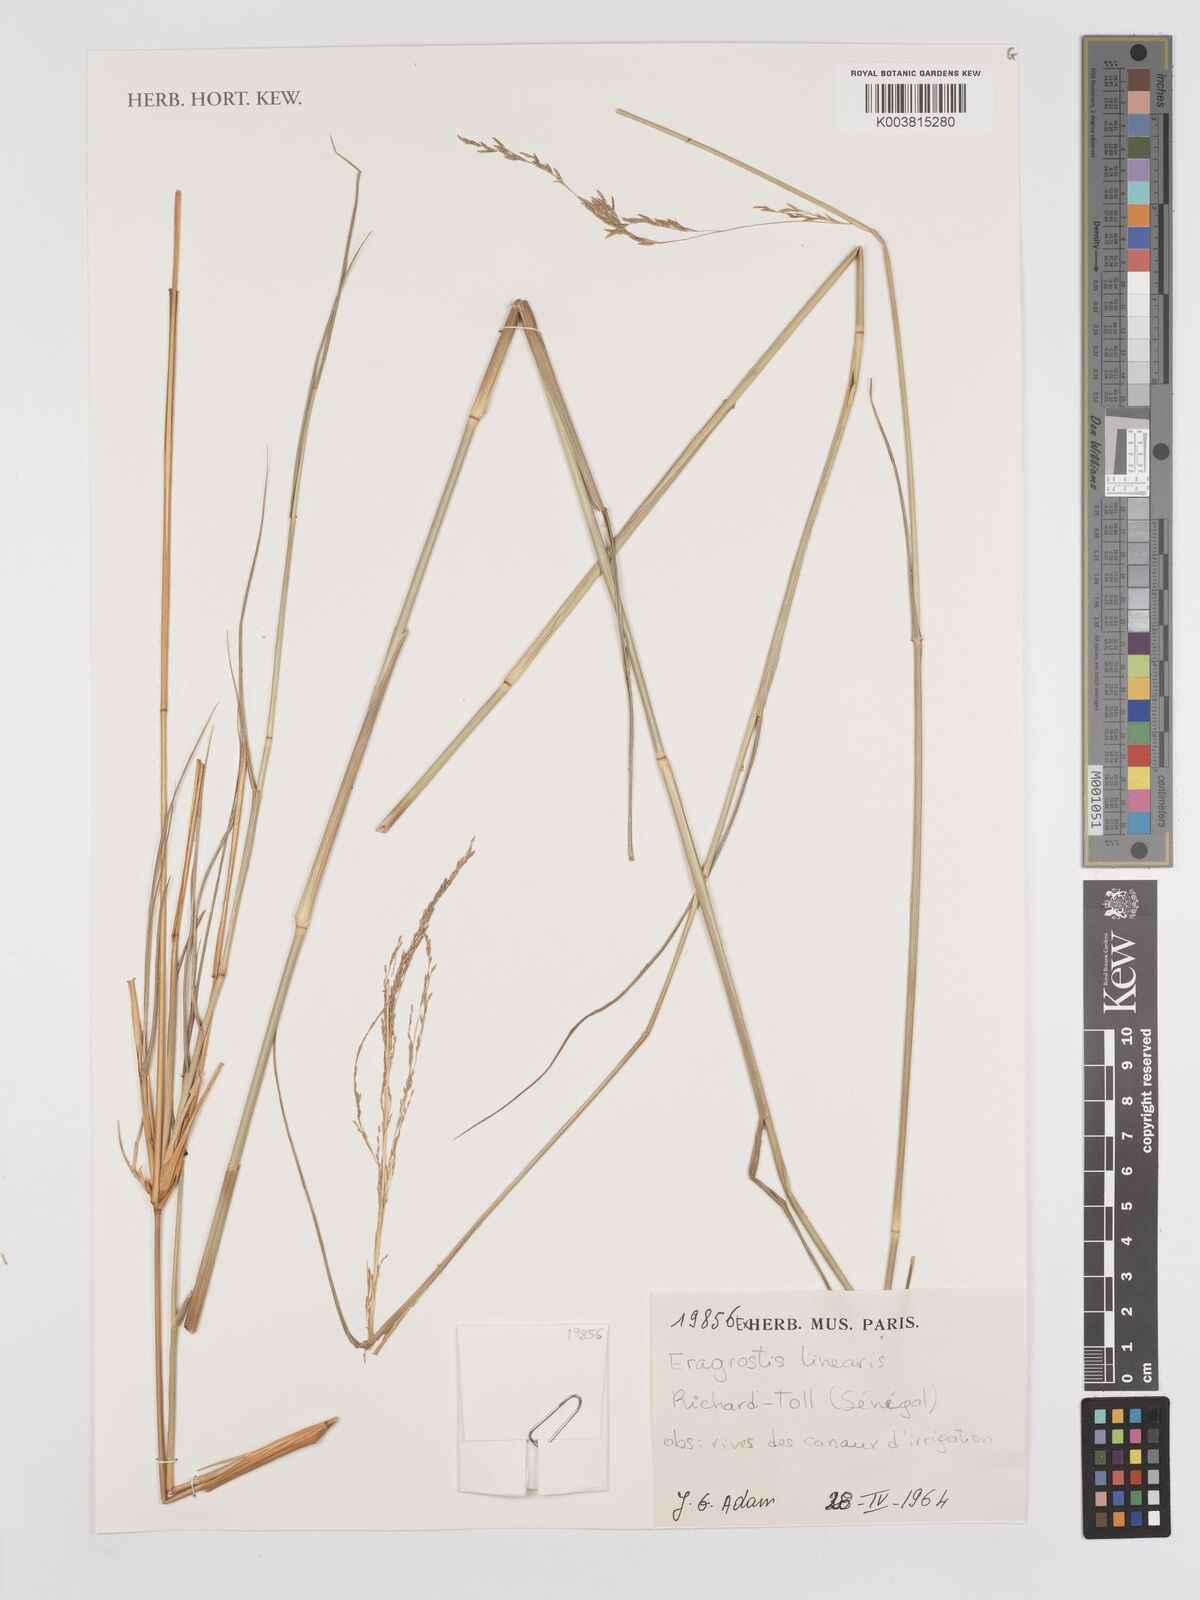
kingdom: Plantae
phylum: Tracheophyta
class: Liliopsida
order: Poales
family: Poaceae
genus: Eragrostis
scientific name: Eragrostis prolifera
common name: Dominican lovegrass
